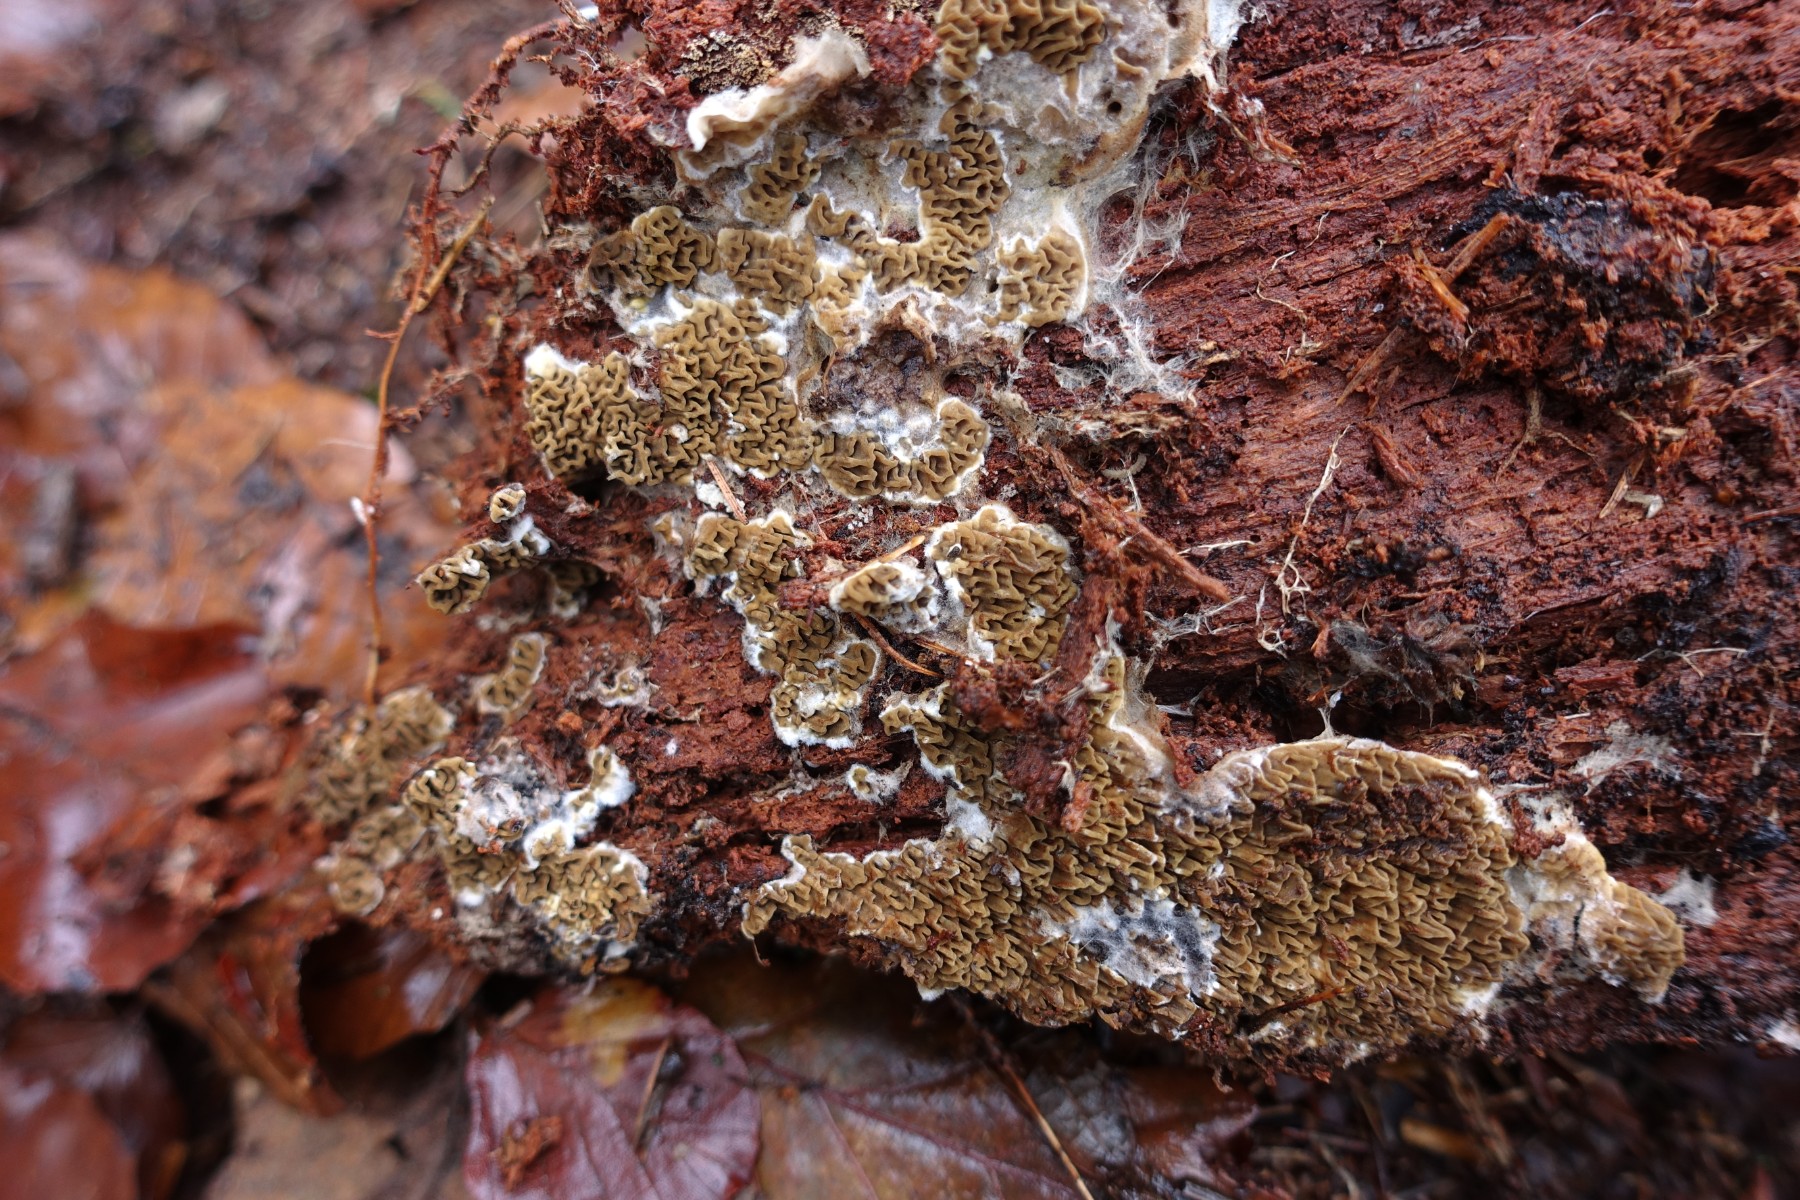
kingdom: Fungi
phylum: Basidiomycota
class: Agaricomycetes
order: Boletales
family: Serpulaceae
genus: Serpula
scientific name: Serpula himantioides
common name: tyndkødet hussvamp
